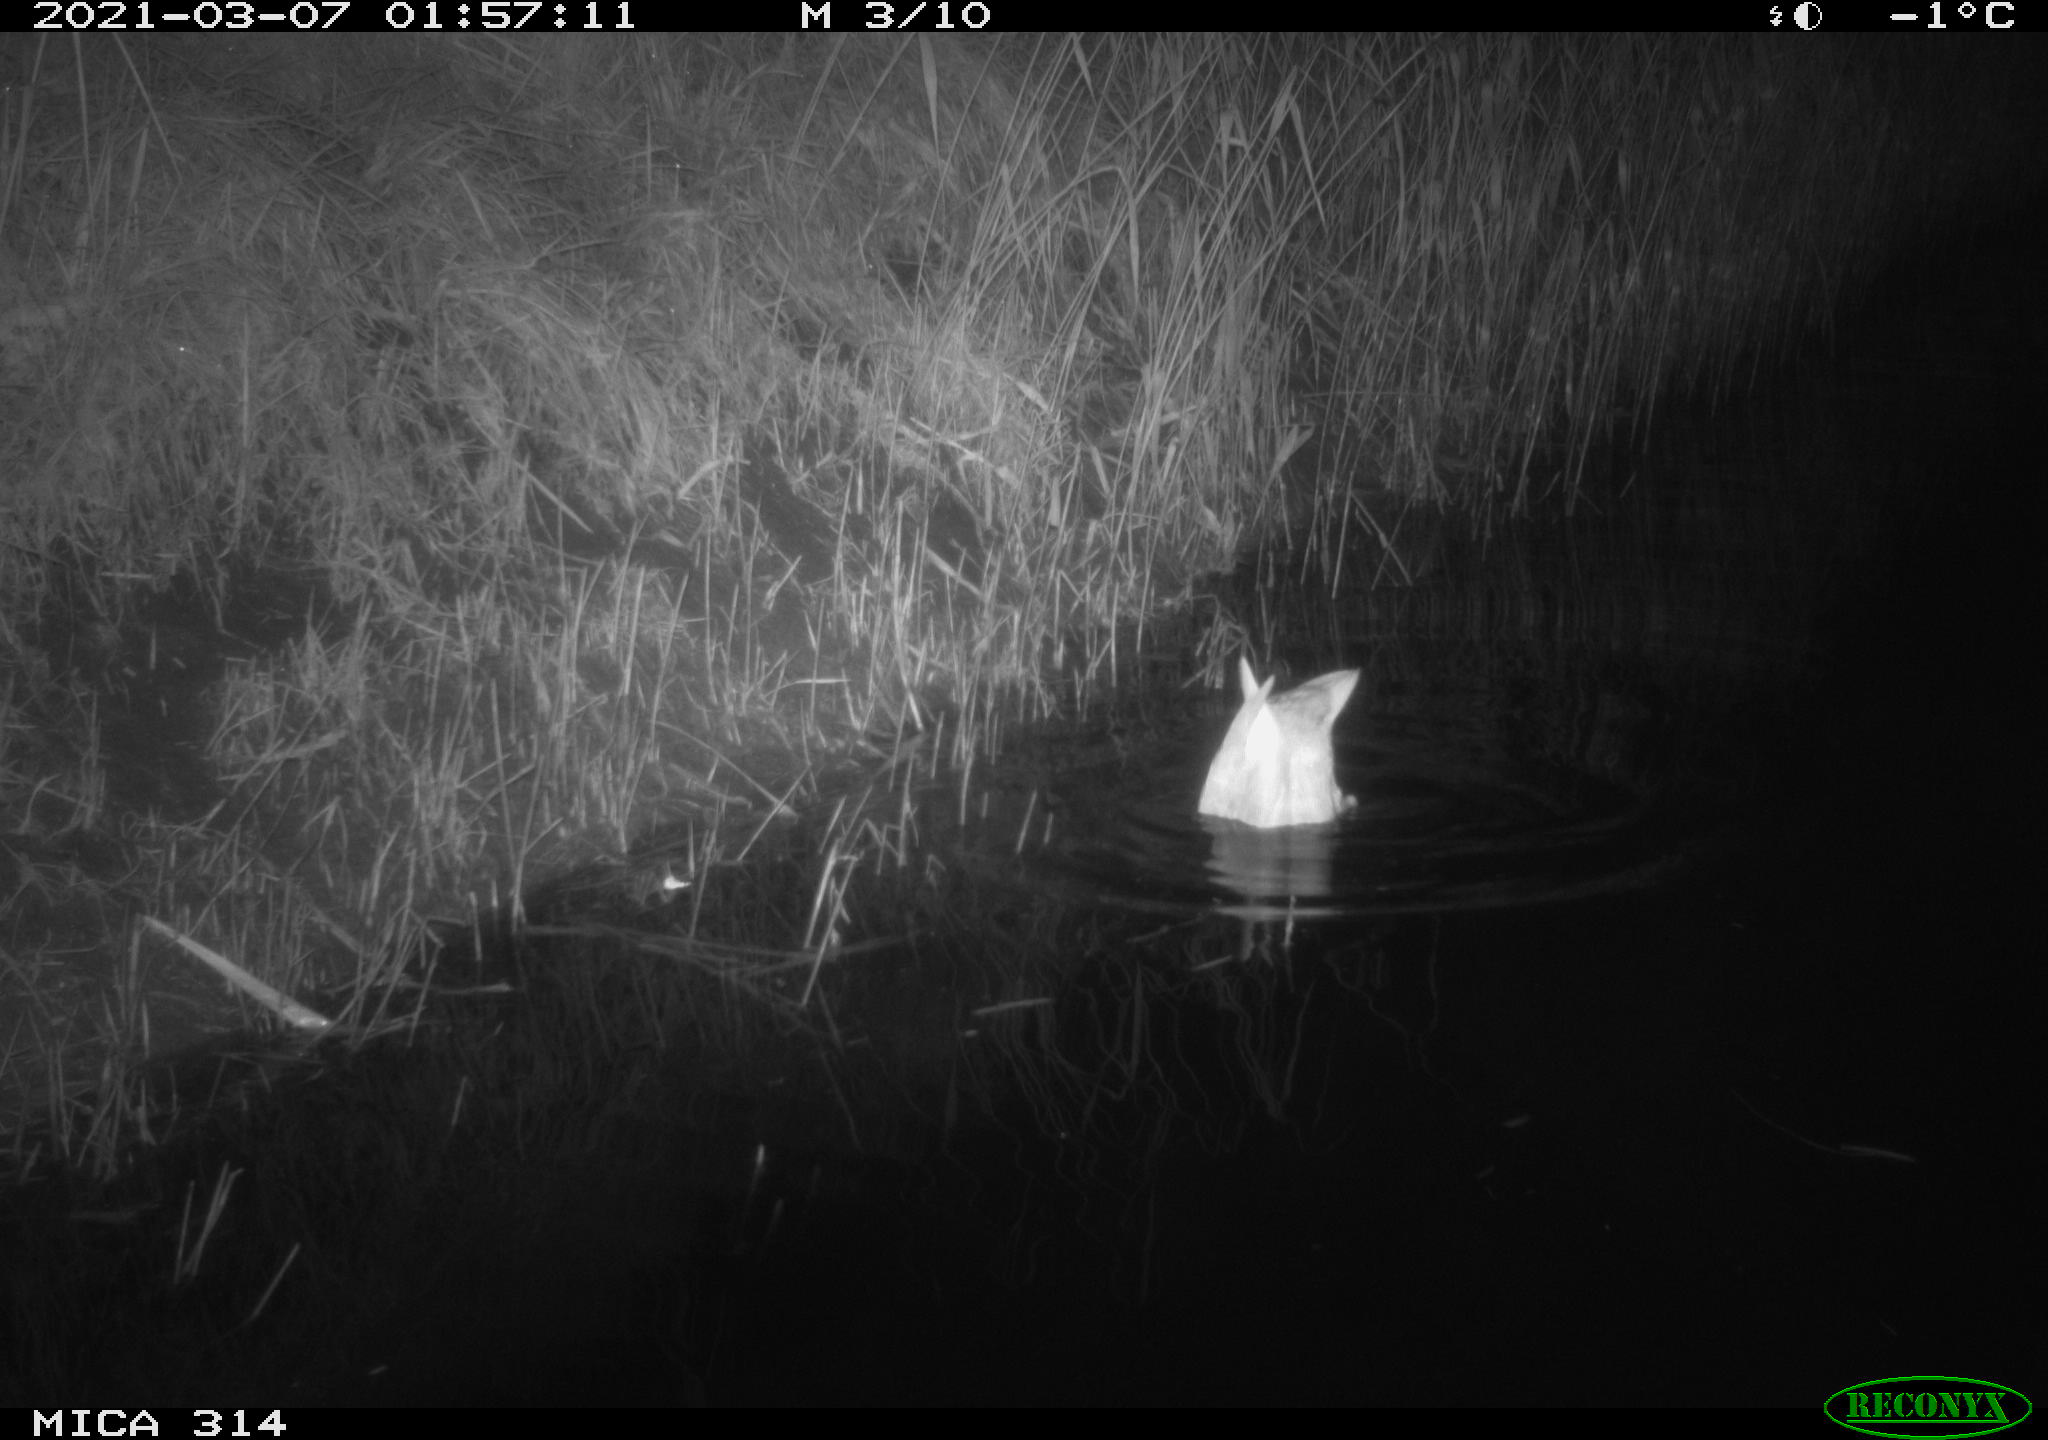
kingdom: Animalia
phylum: Chordata
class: Aves
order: Anseriformes
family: Anatidae
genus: Anas
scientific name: Anas platyrhynchos
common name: Mallard
